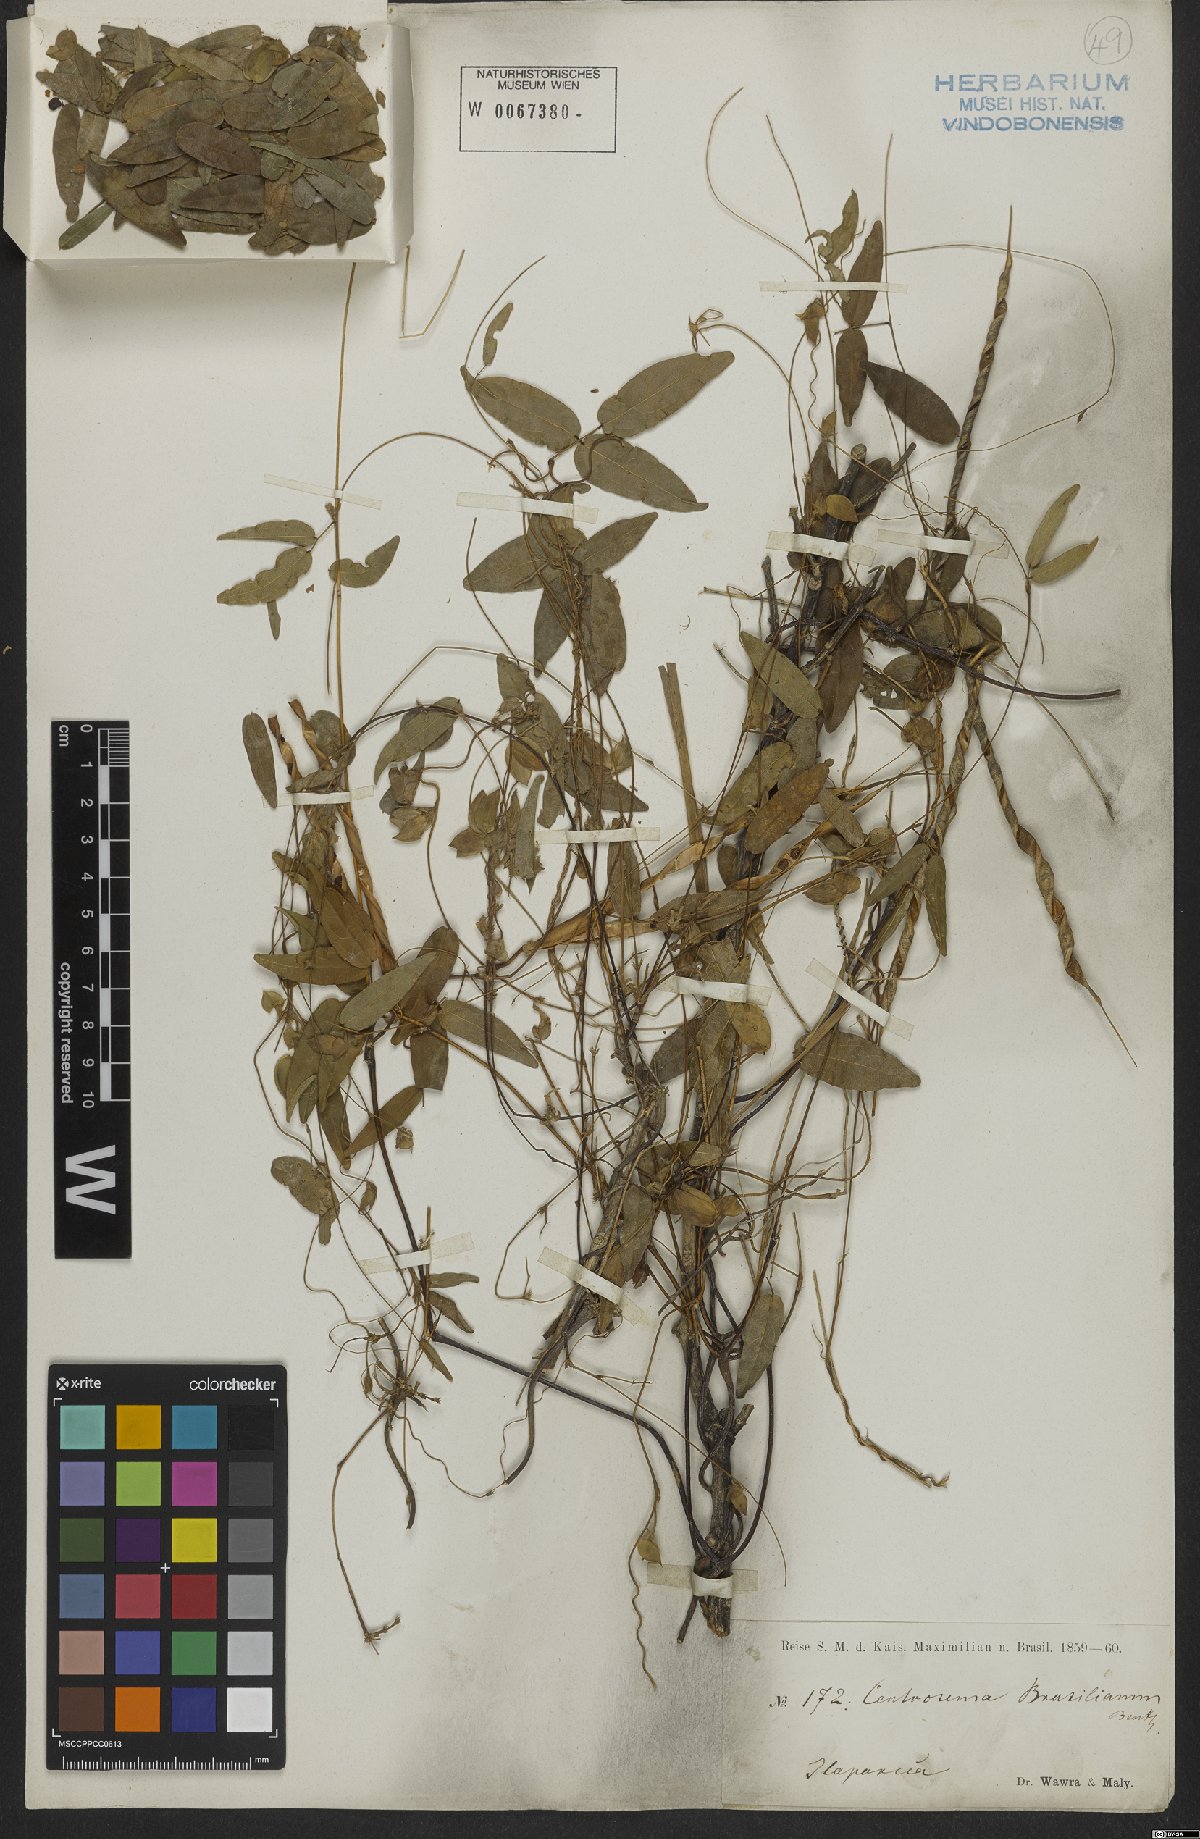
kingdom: Plantae
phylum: Tracheophyta
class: Magnoliopsida
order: Fabales
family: Fabaceae
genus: Centrosema
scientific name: Centrosema brasilianum
